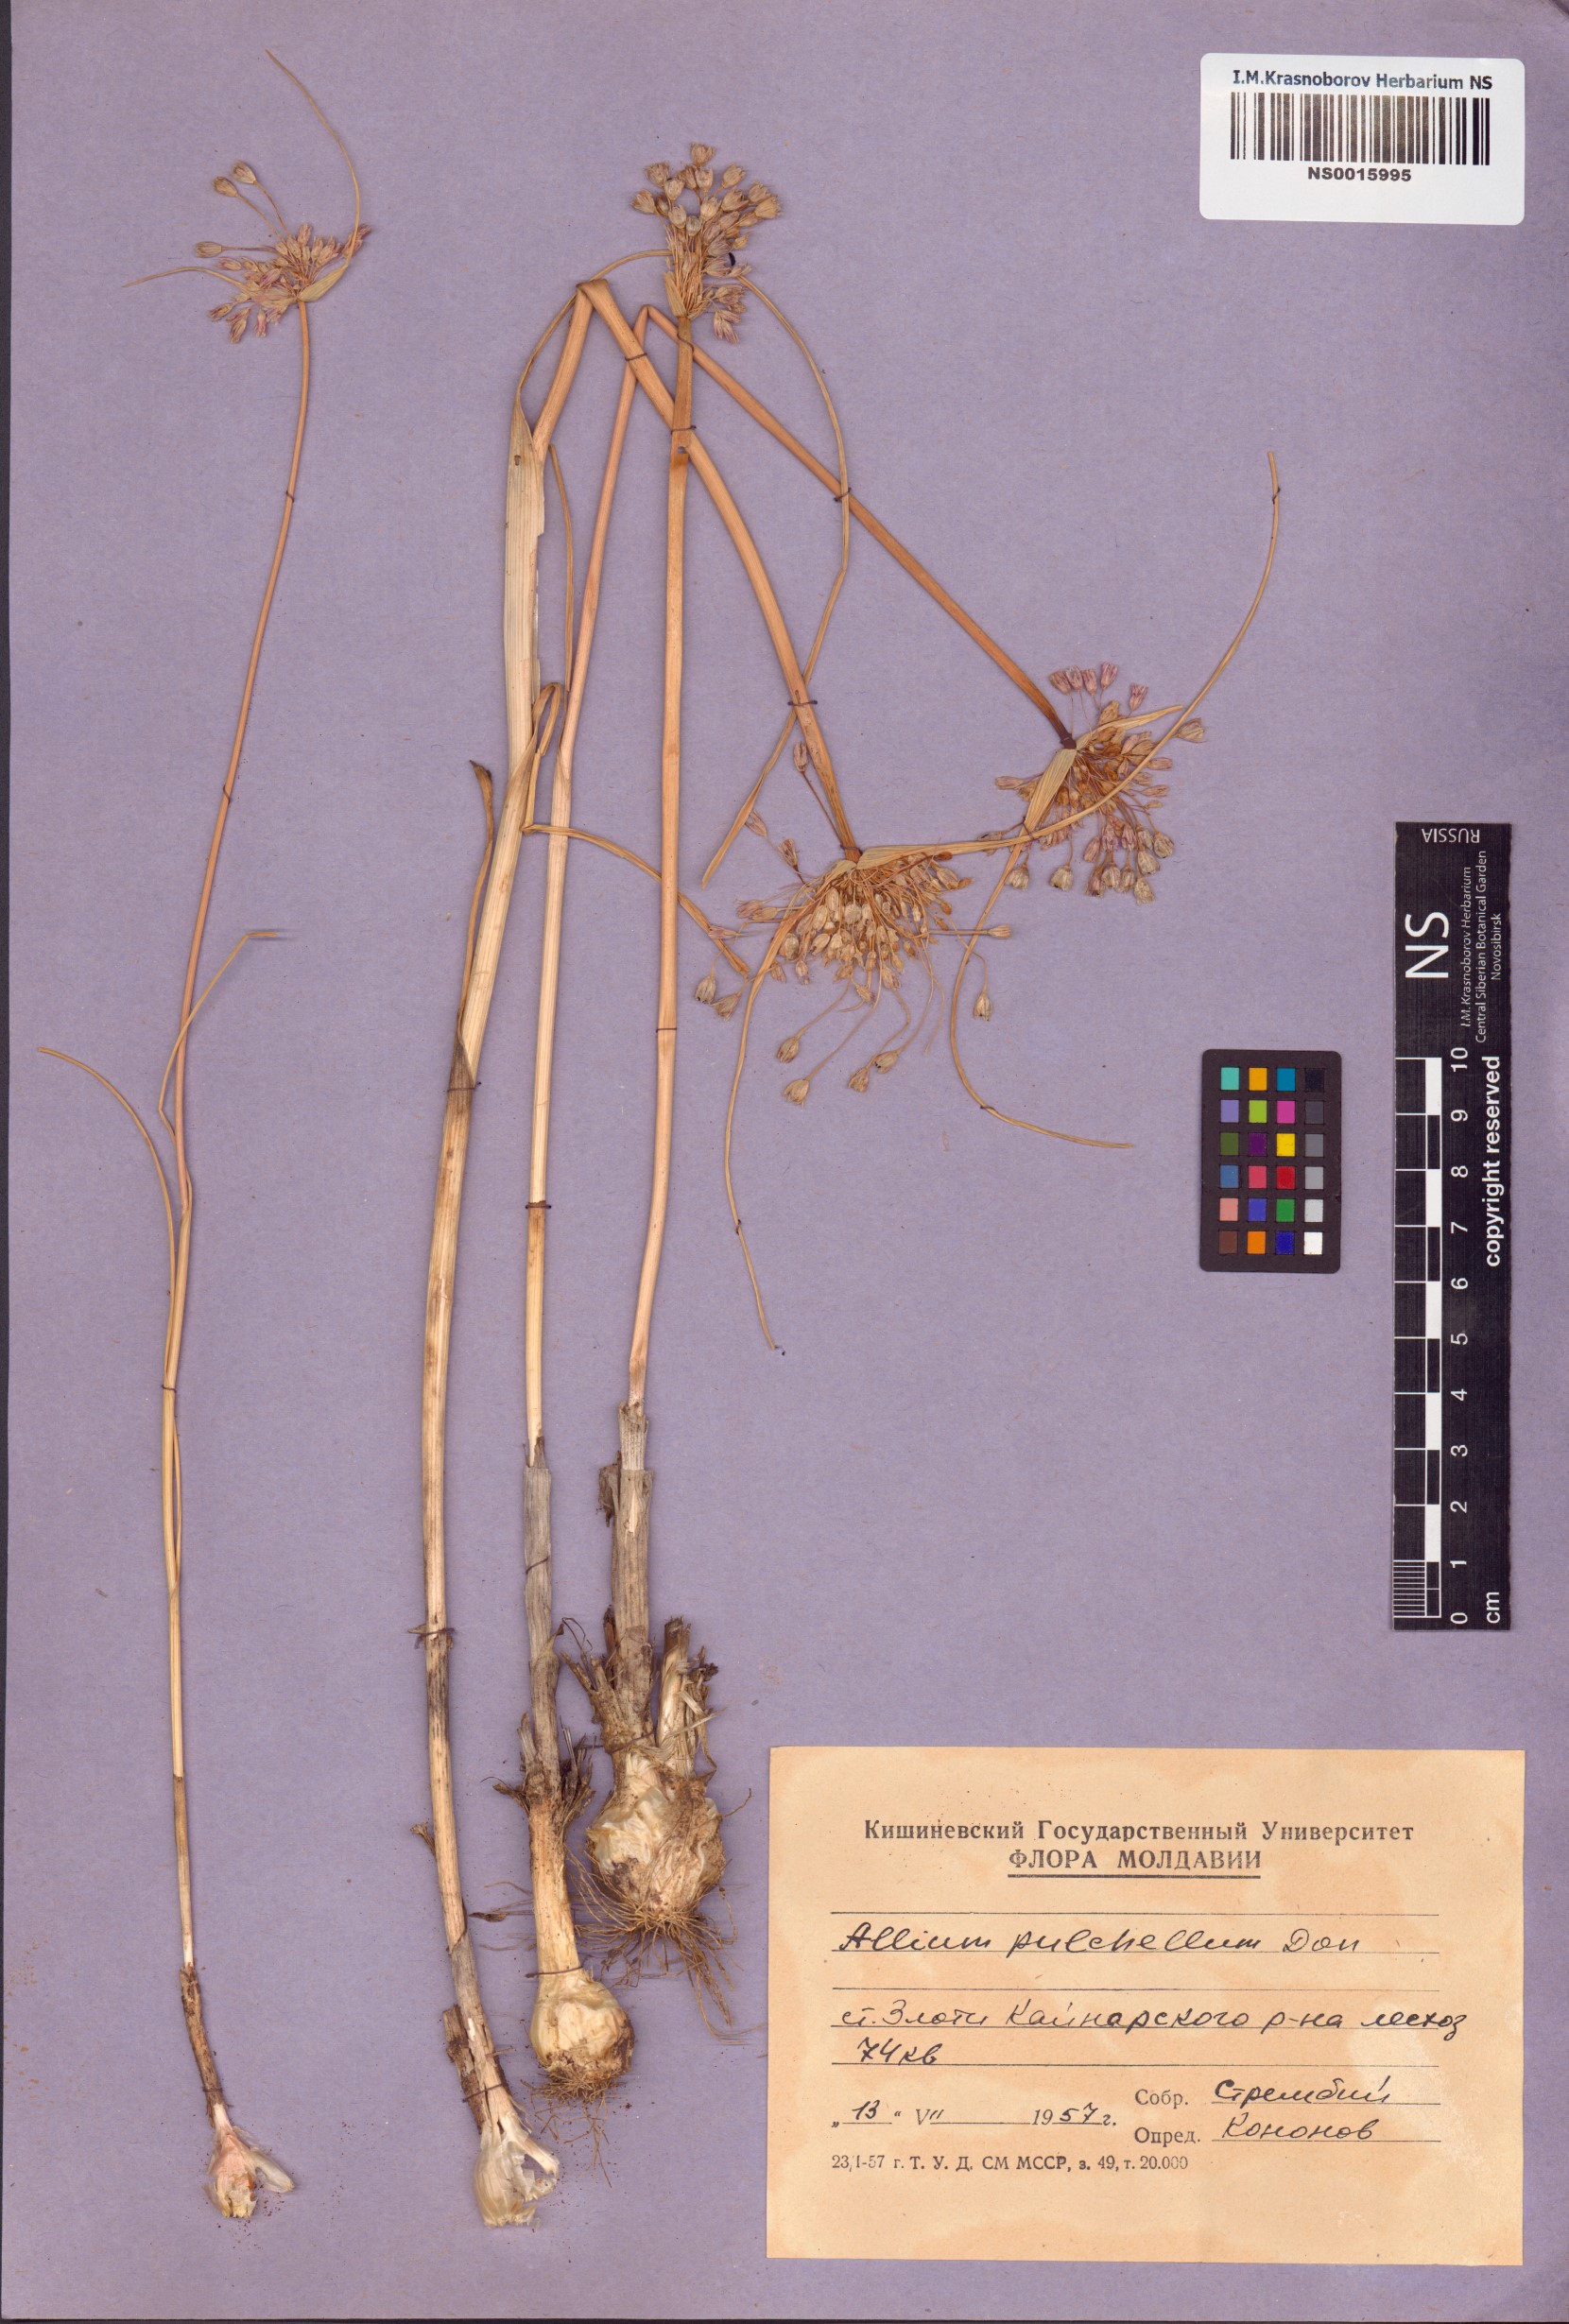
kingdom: Plantae
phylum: Tracheophyta
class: Liliopsida
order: Asparagales
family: Amaryllidaceae
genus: Allium
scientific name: Allium coloratum
